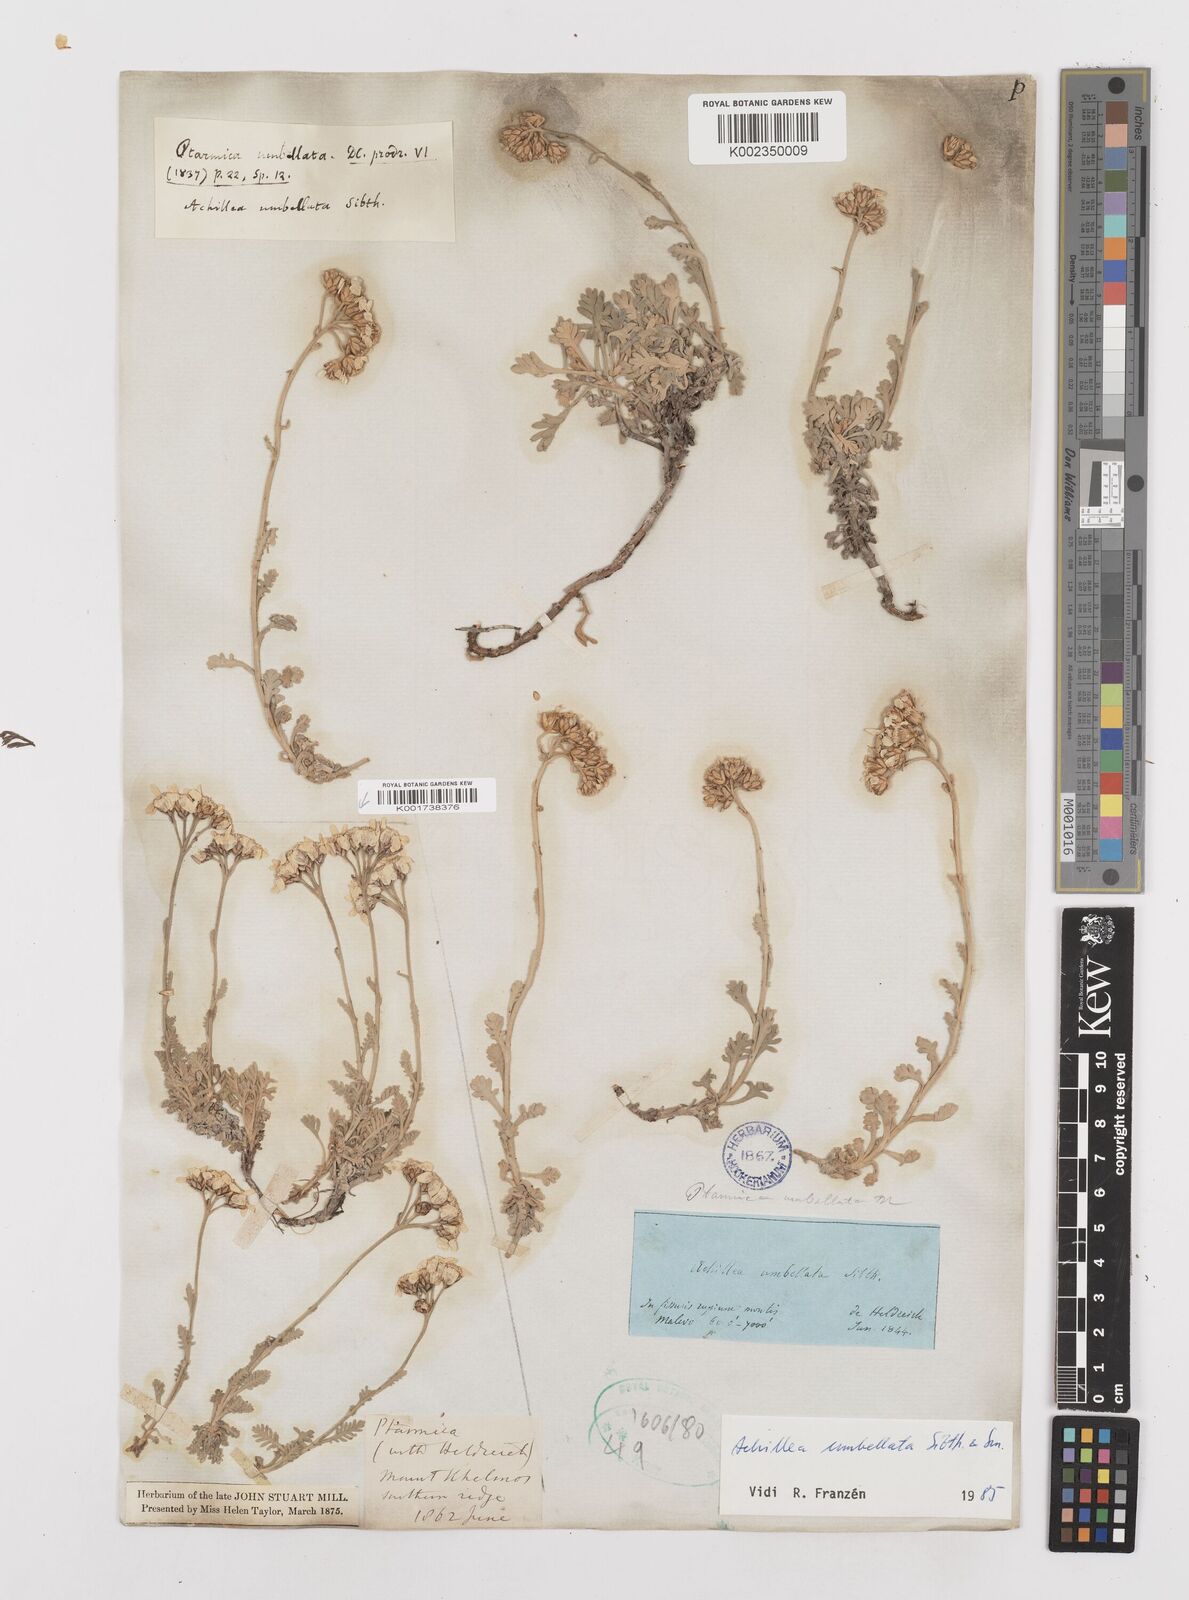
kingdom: Plantae
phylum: Tracheophyta
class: Magnoliopsida
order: Asterales
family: Asteraceae
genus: Achillea
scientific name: Achillea umbellata
